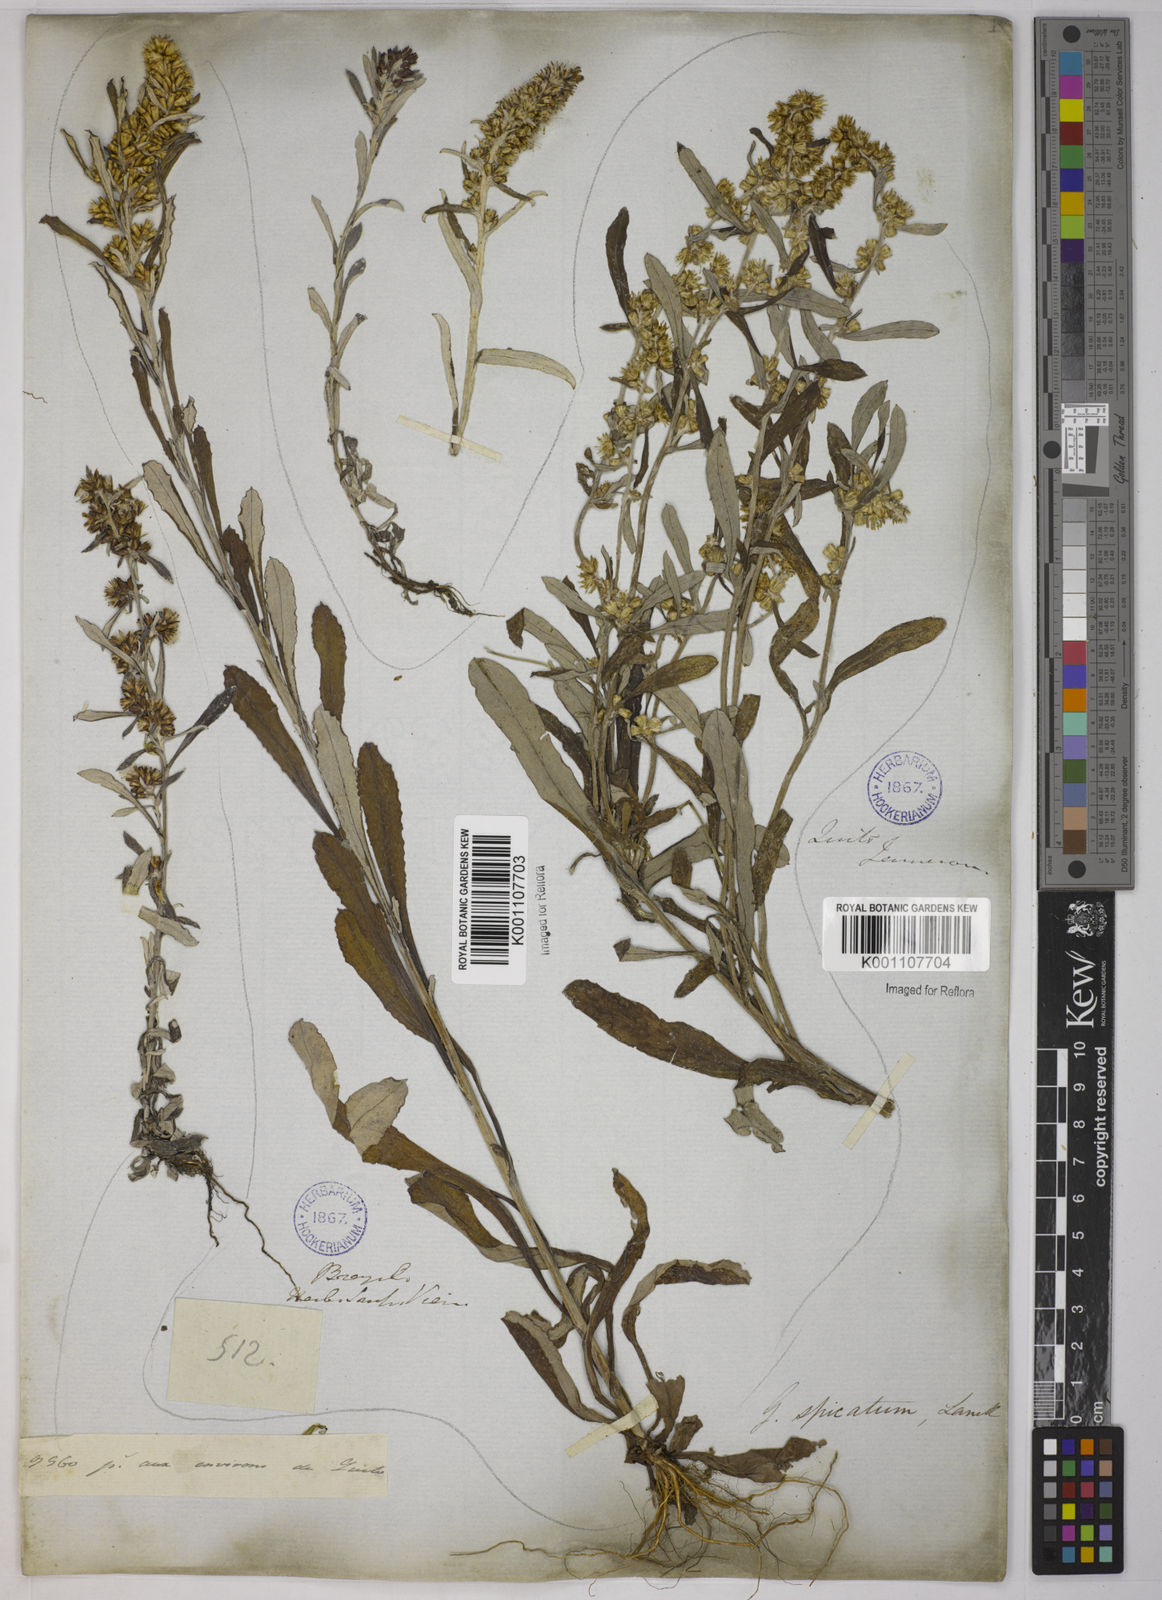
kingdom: Plantae
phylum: Tracheophyta
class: Magnoliopsida
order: Asterales
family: Asteraceae
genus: Gamochaeta
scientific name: Gamochaeta simplicicaulis
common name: Simple-stem everlasting
